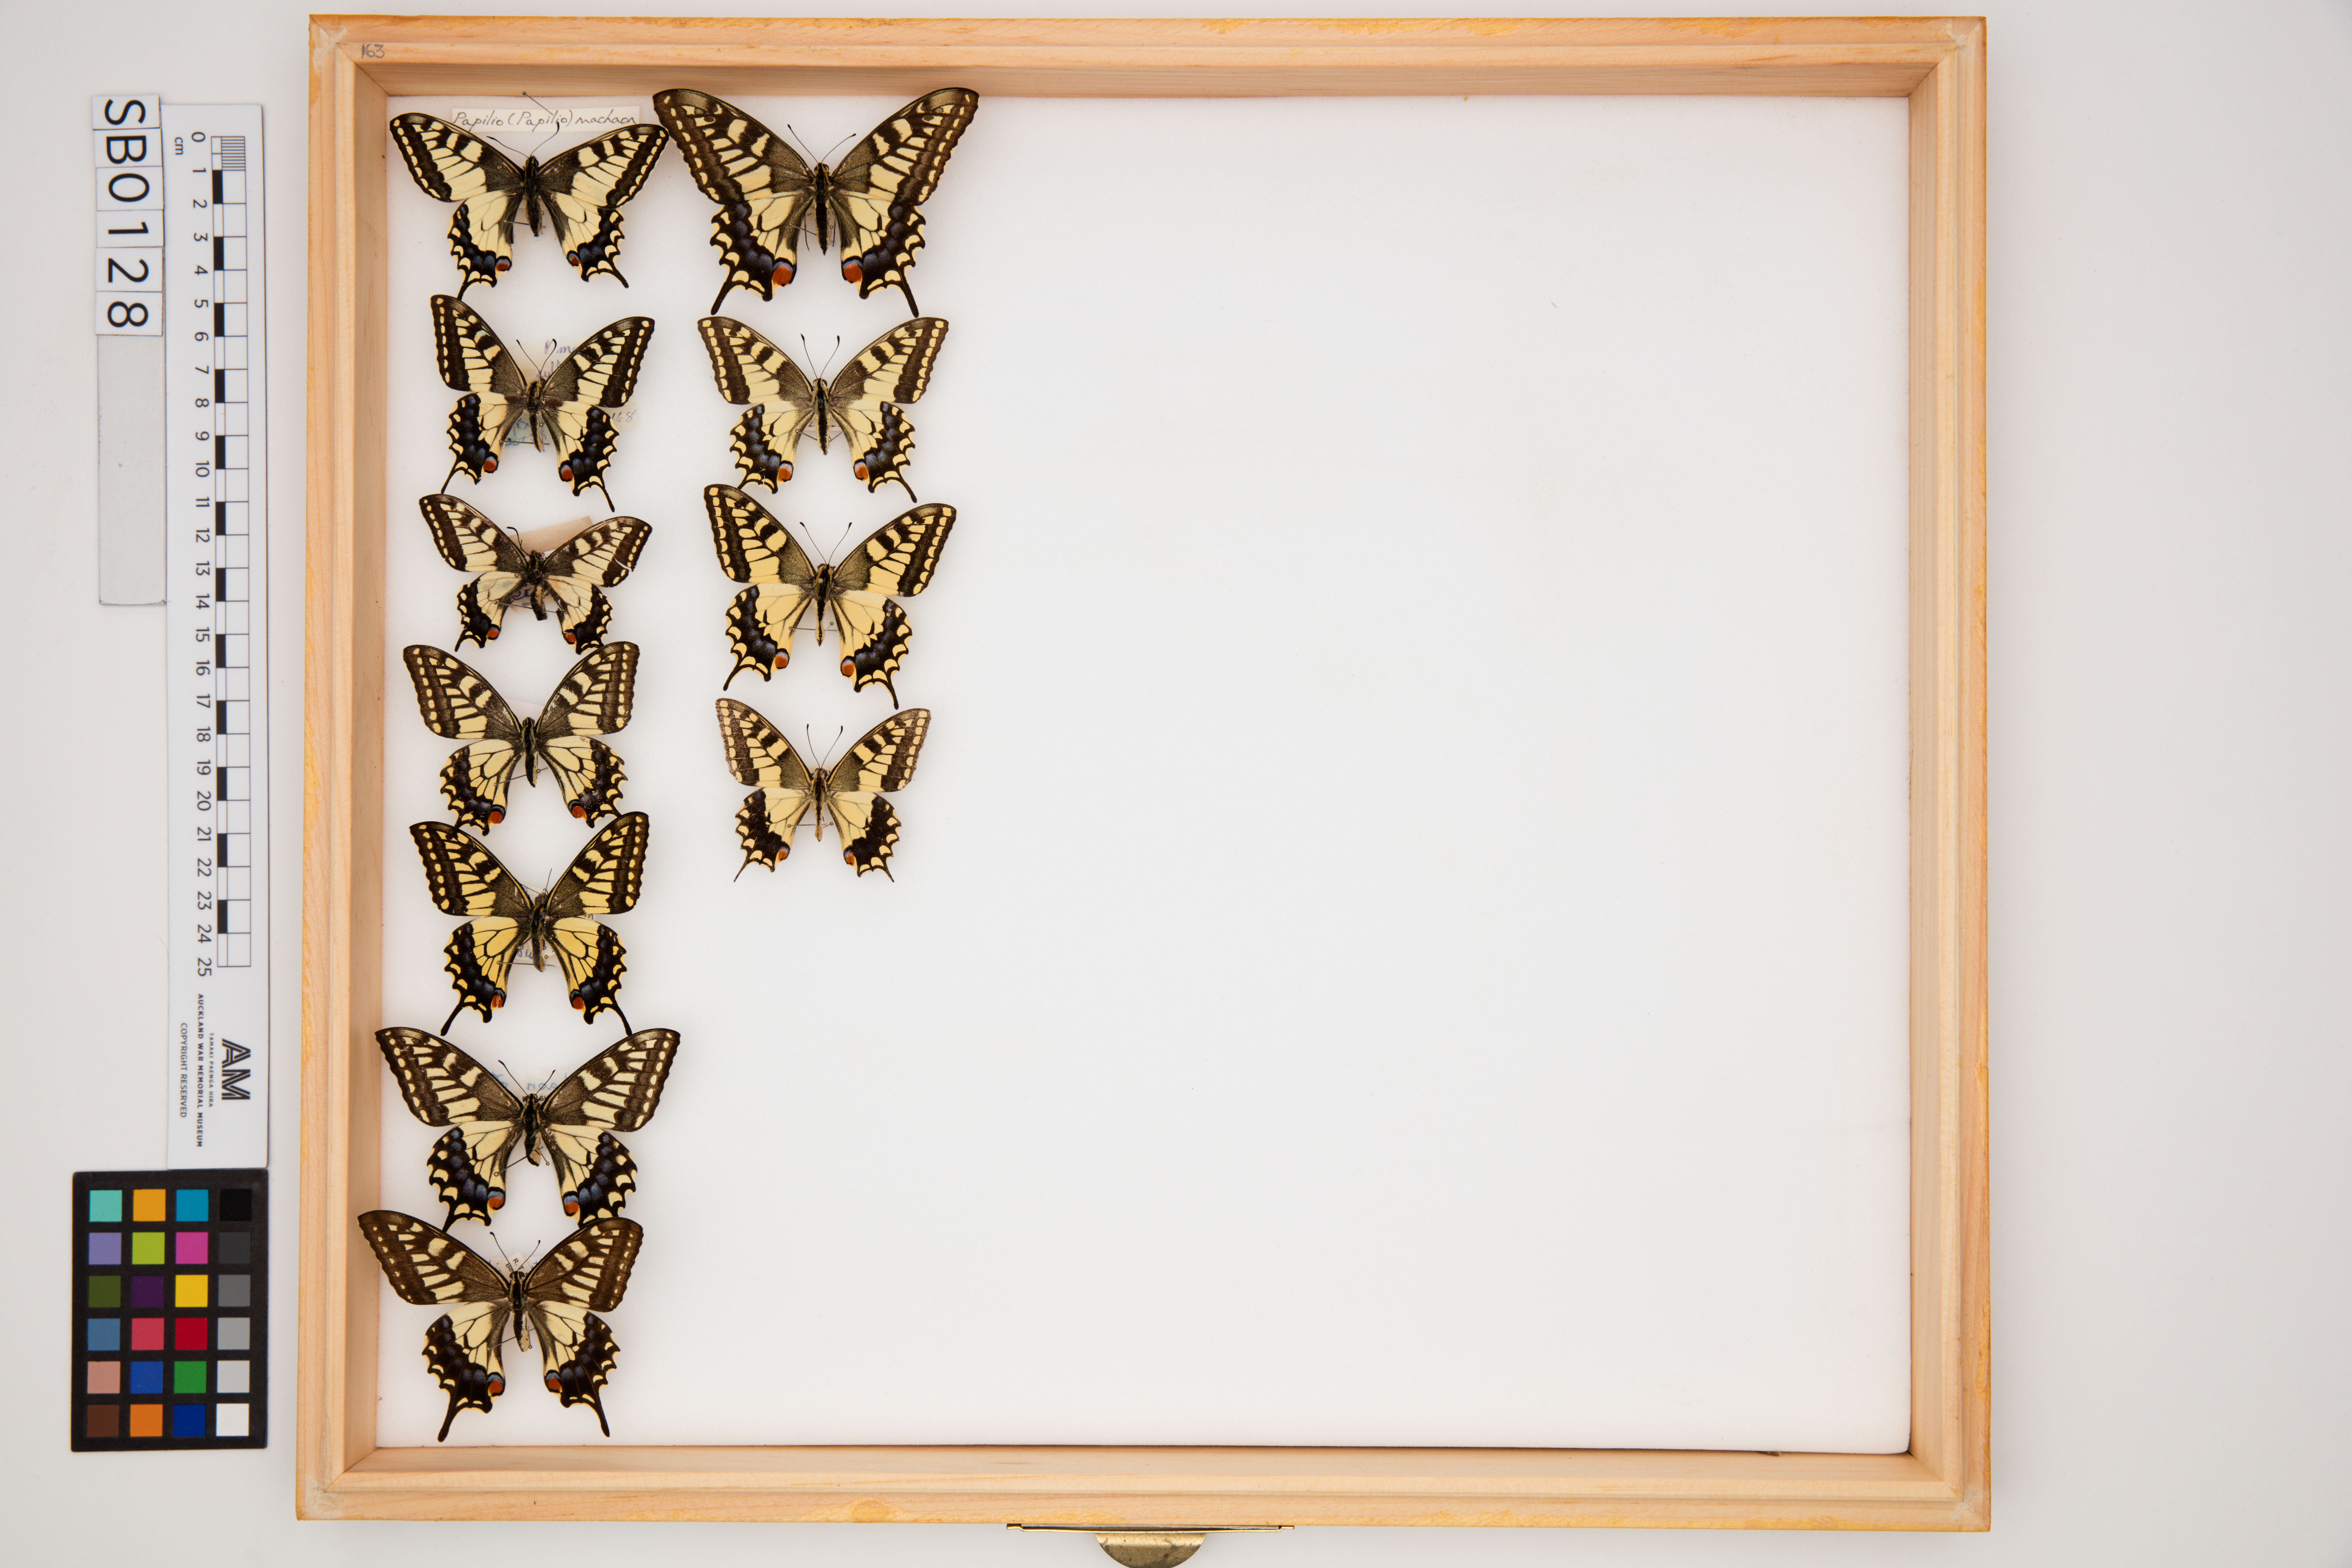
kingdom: Animalia
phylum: Arthropoda
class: Insecta
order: Lepidoptera
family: Papilionidae
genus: Papilio
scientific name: Papilio machaon
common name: Swallowtail
